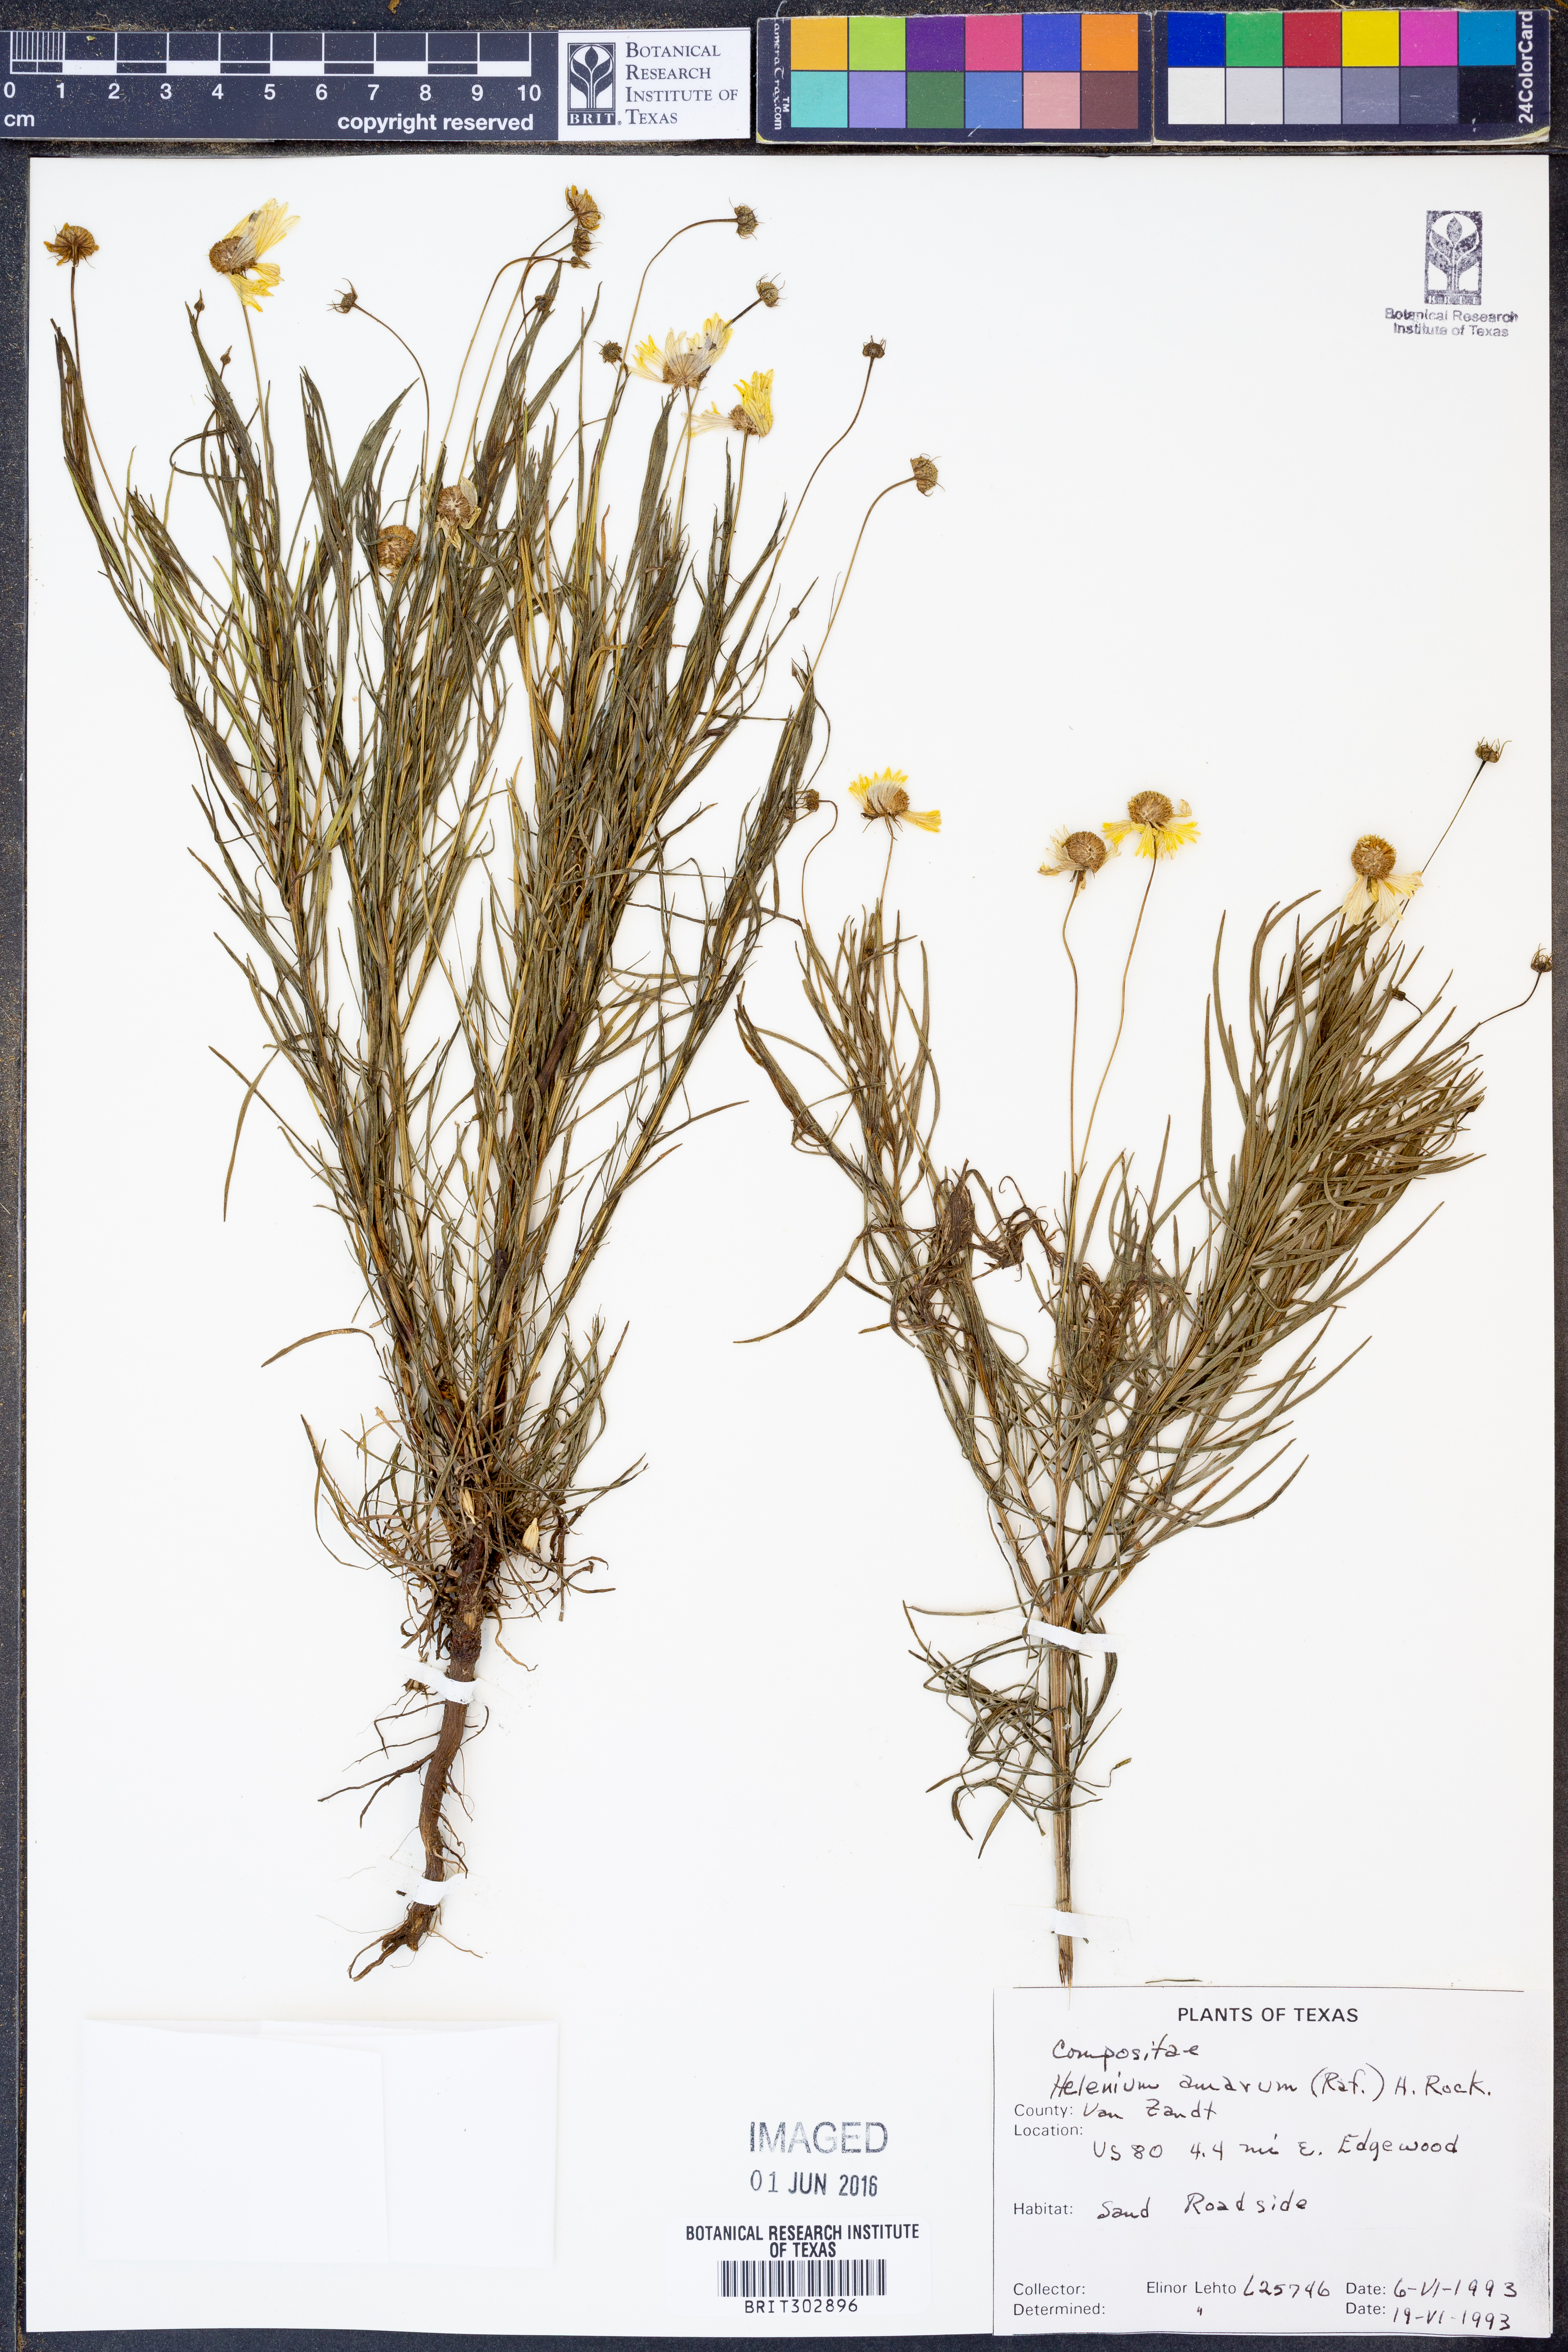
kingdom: Plantae
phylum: Tracheophyta
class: Magnoliopsida
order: Asterales
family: Asteraceae
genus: Helenium
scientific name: Helenium amarum
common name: Bitter sneezeweed
